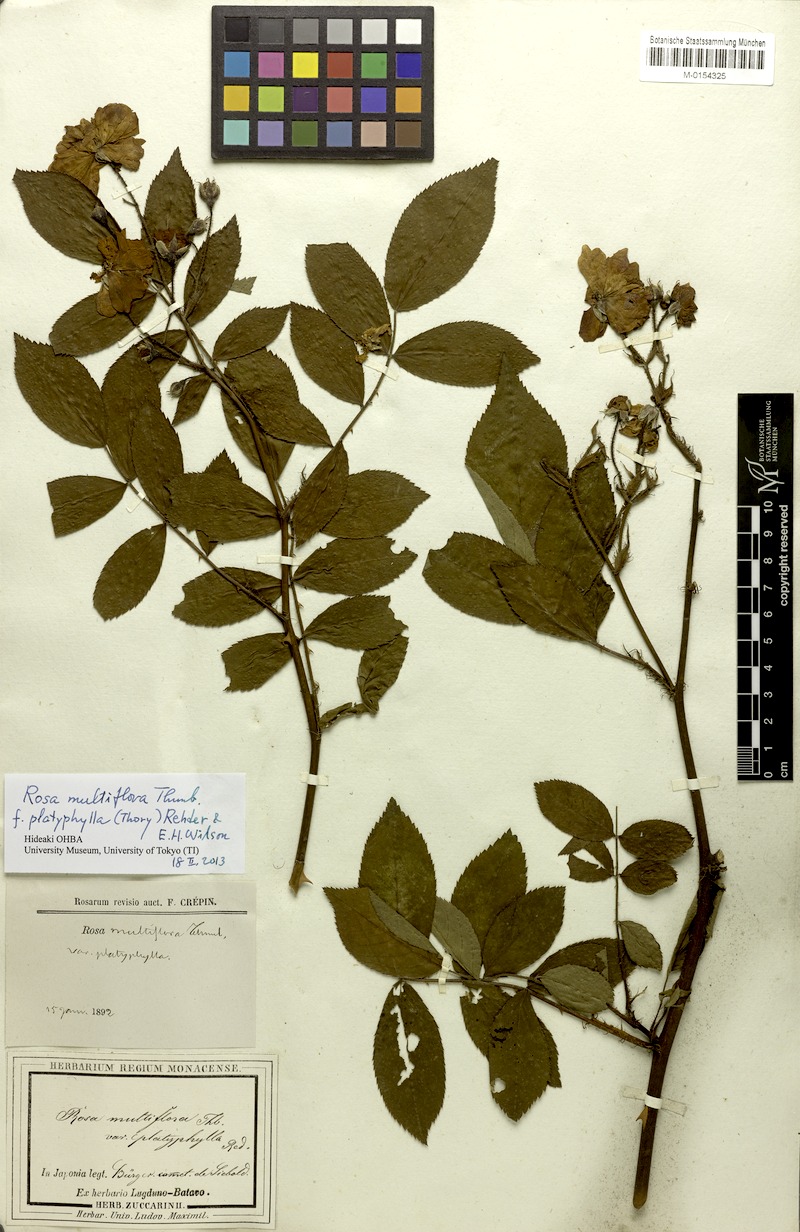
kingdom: Plantae
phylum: Tracheophyta
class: Magnoliopsida
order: Rosales
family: Rosaceae
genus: Rosa
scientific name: Rosa multiflora
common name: Multiflora rose
